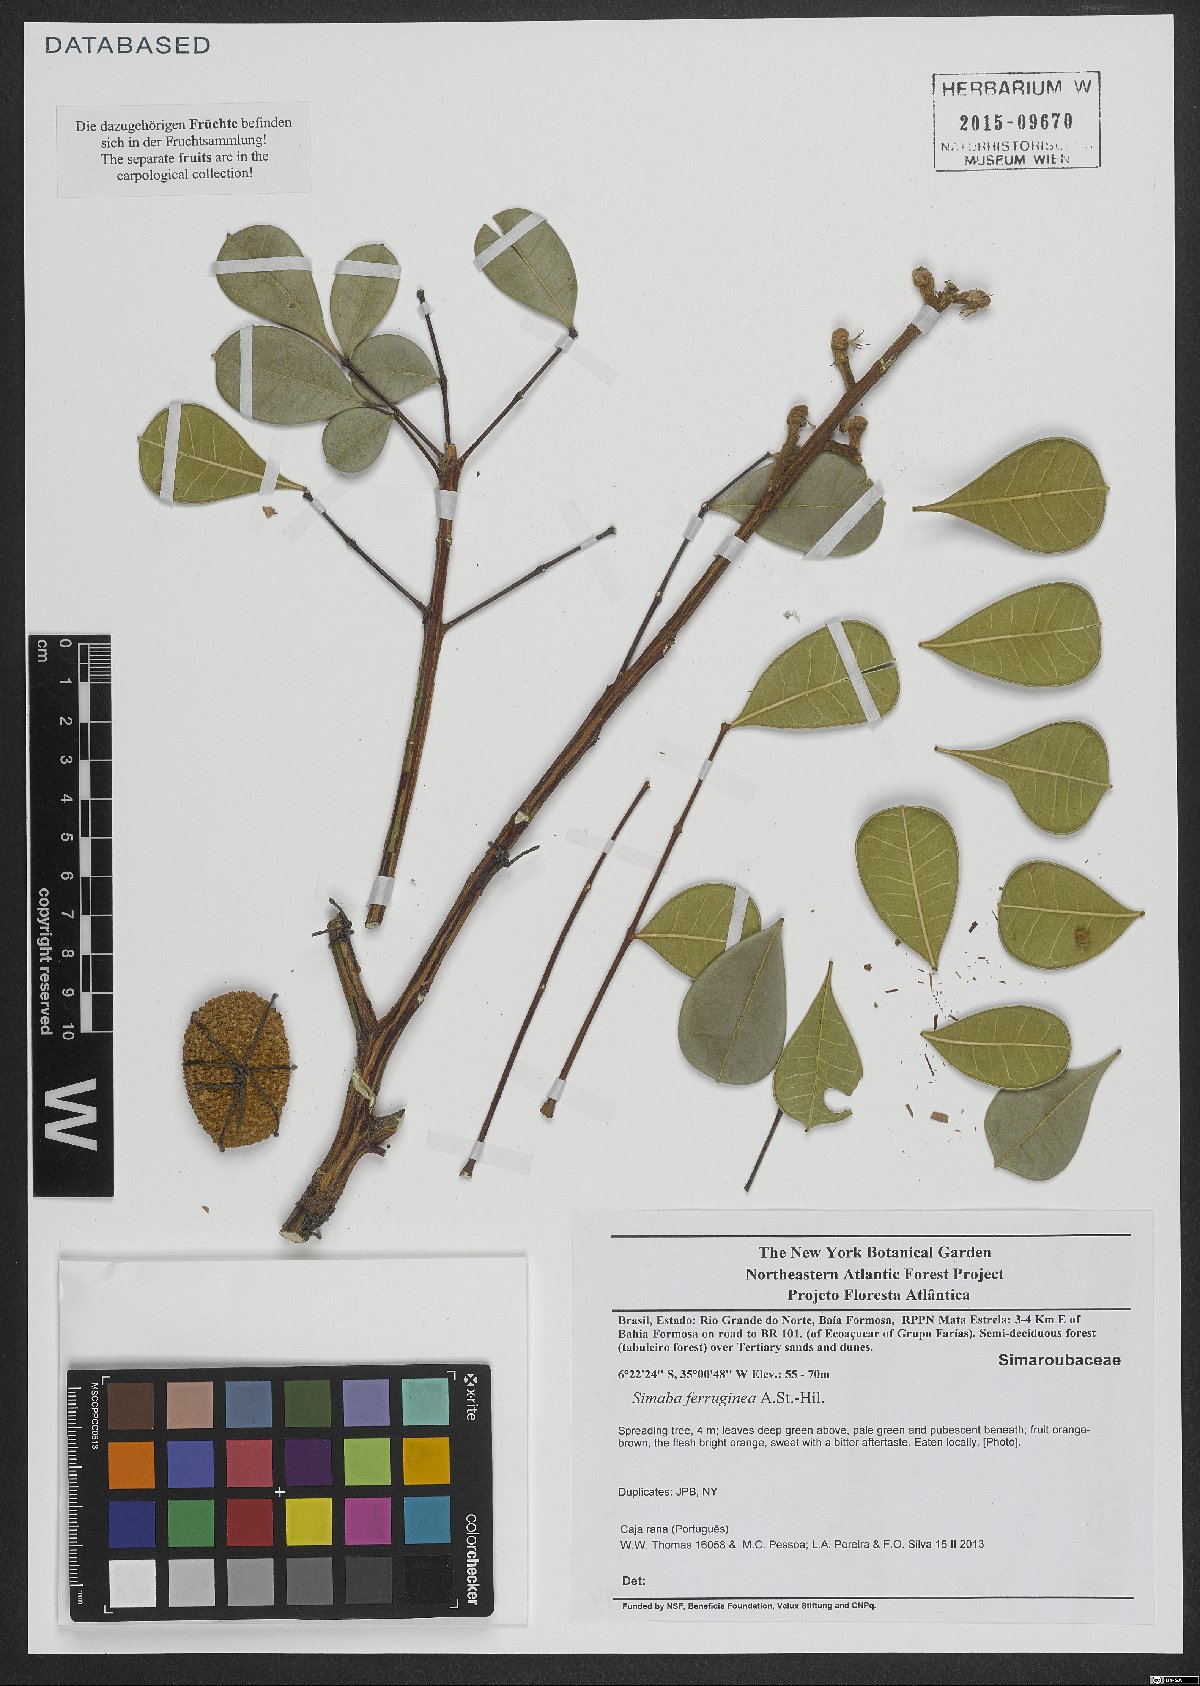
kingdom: Plantae
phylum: Tracheophyta
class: Magnoliopsida
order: Sapindales
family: Simaroubaceae
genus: Homalolepis
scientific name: Homalolepis ferruginea
